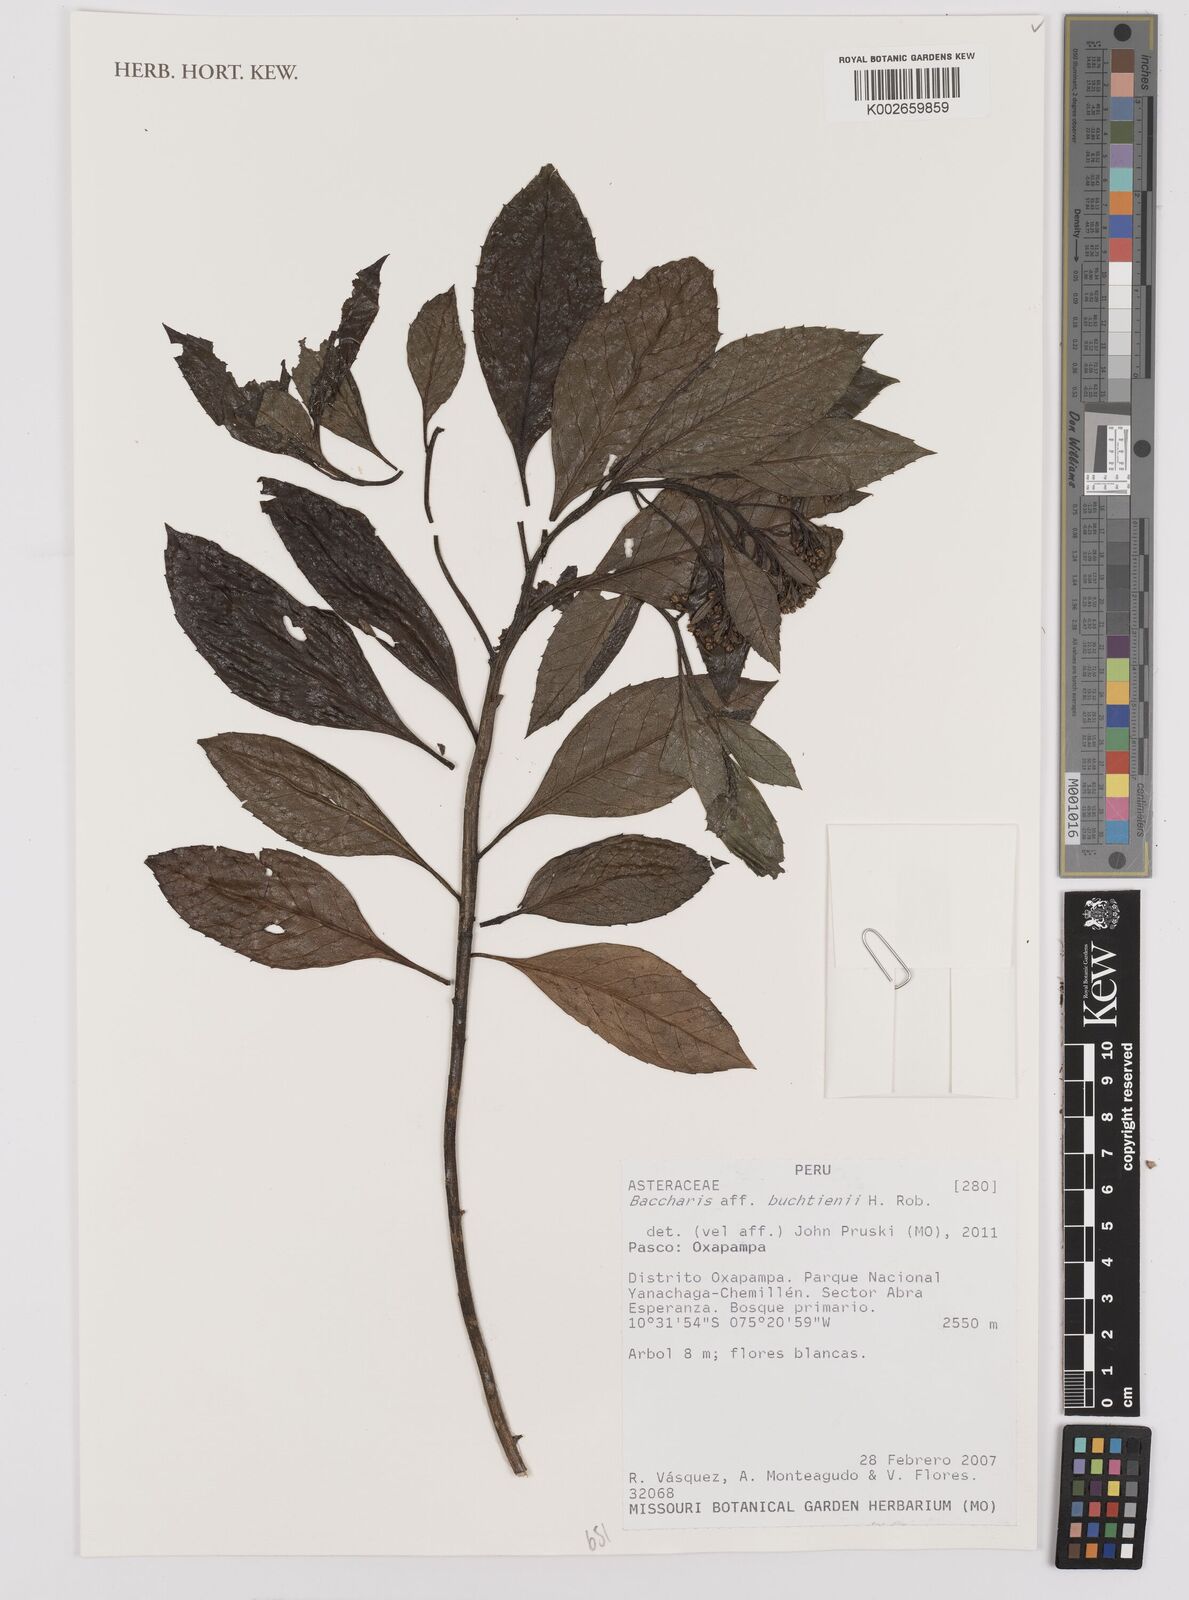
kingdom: Plantae
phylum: Tracheophyta
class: Magnoliopsida
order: Asterales
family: Asteraceae
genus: Baccharis
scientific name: Baccharis buchtienii
